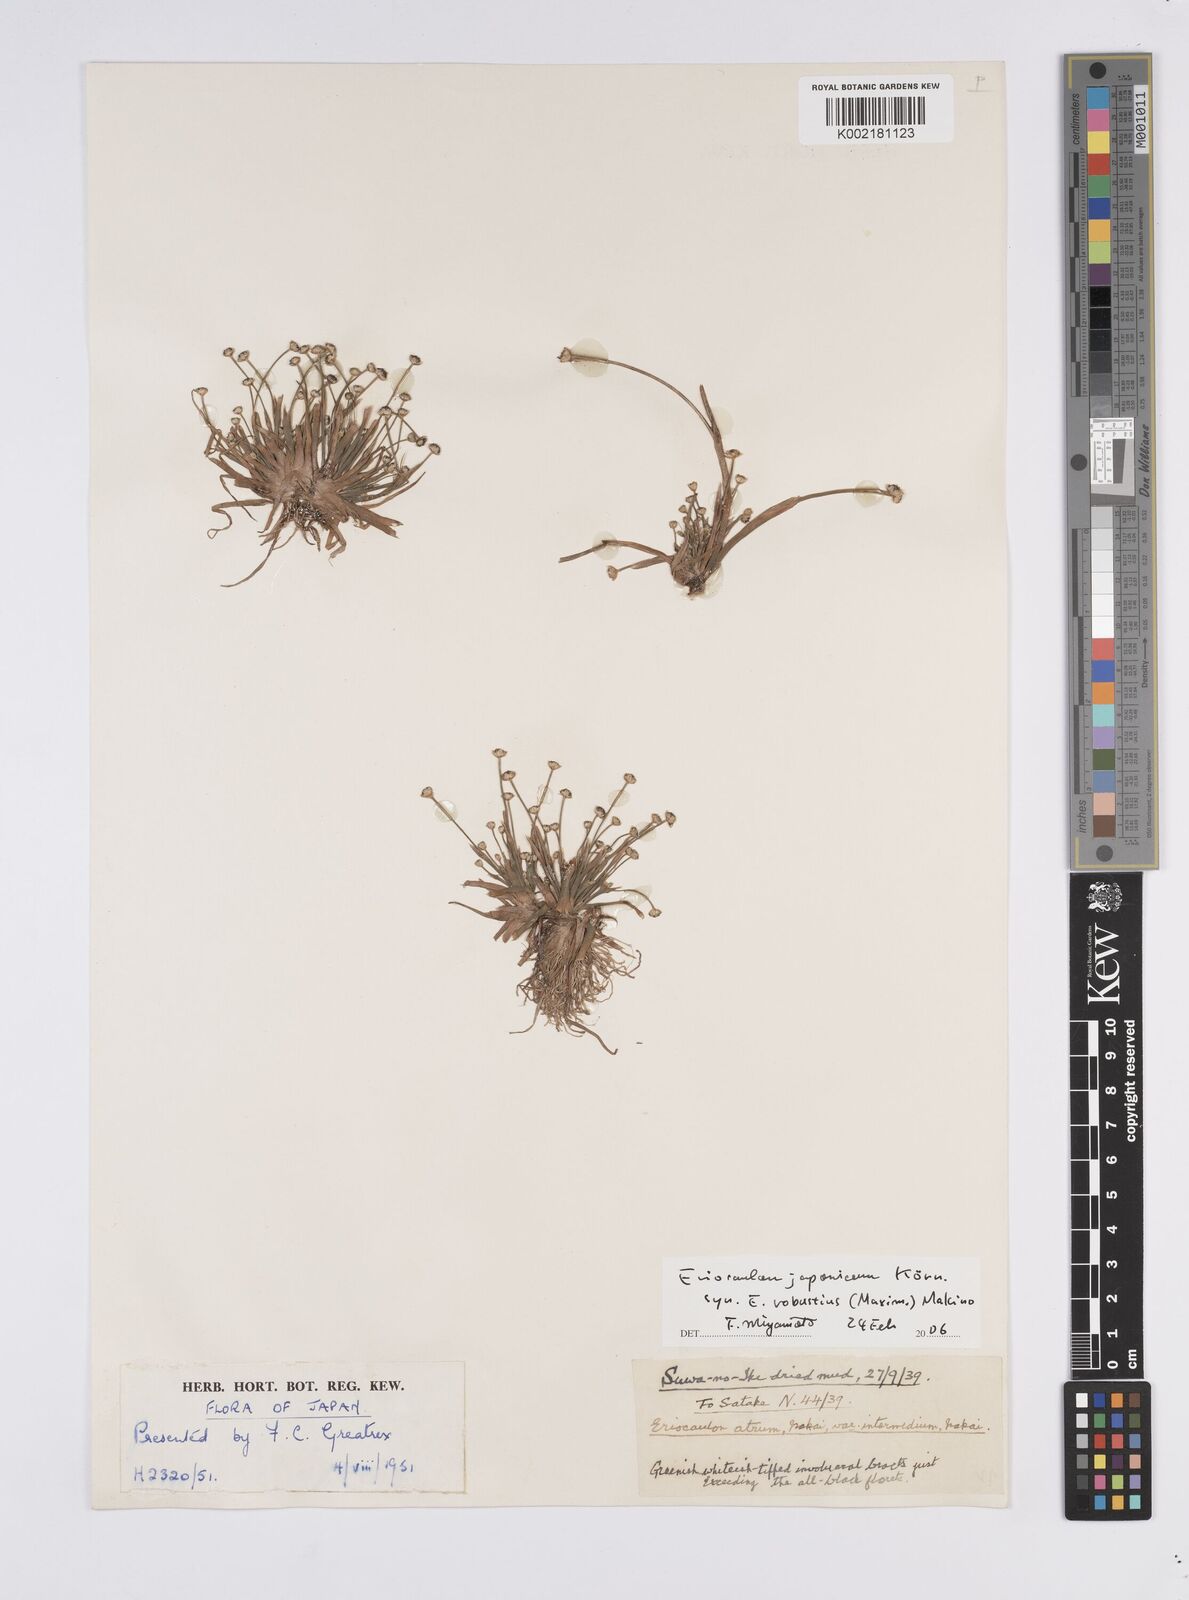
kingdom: Plantae
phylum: Tracheophyta
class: Liliopsida
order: Poales
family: Eriocaulaceae
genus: Eriocaulon
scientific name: Eriocaulon atrum
